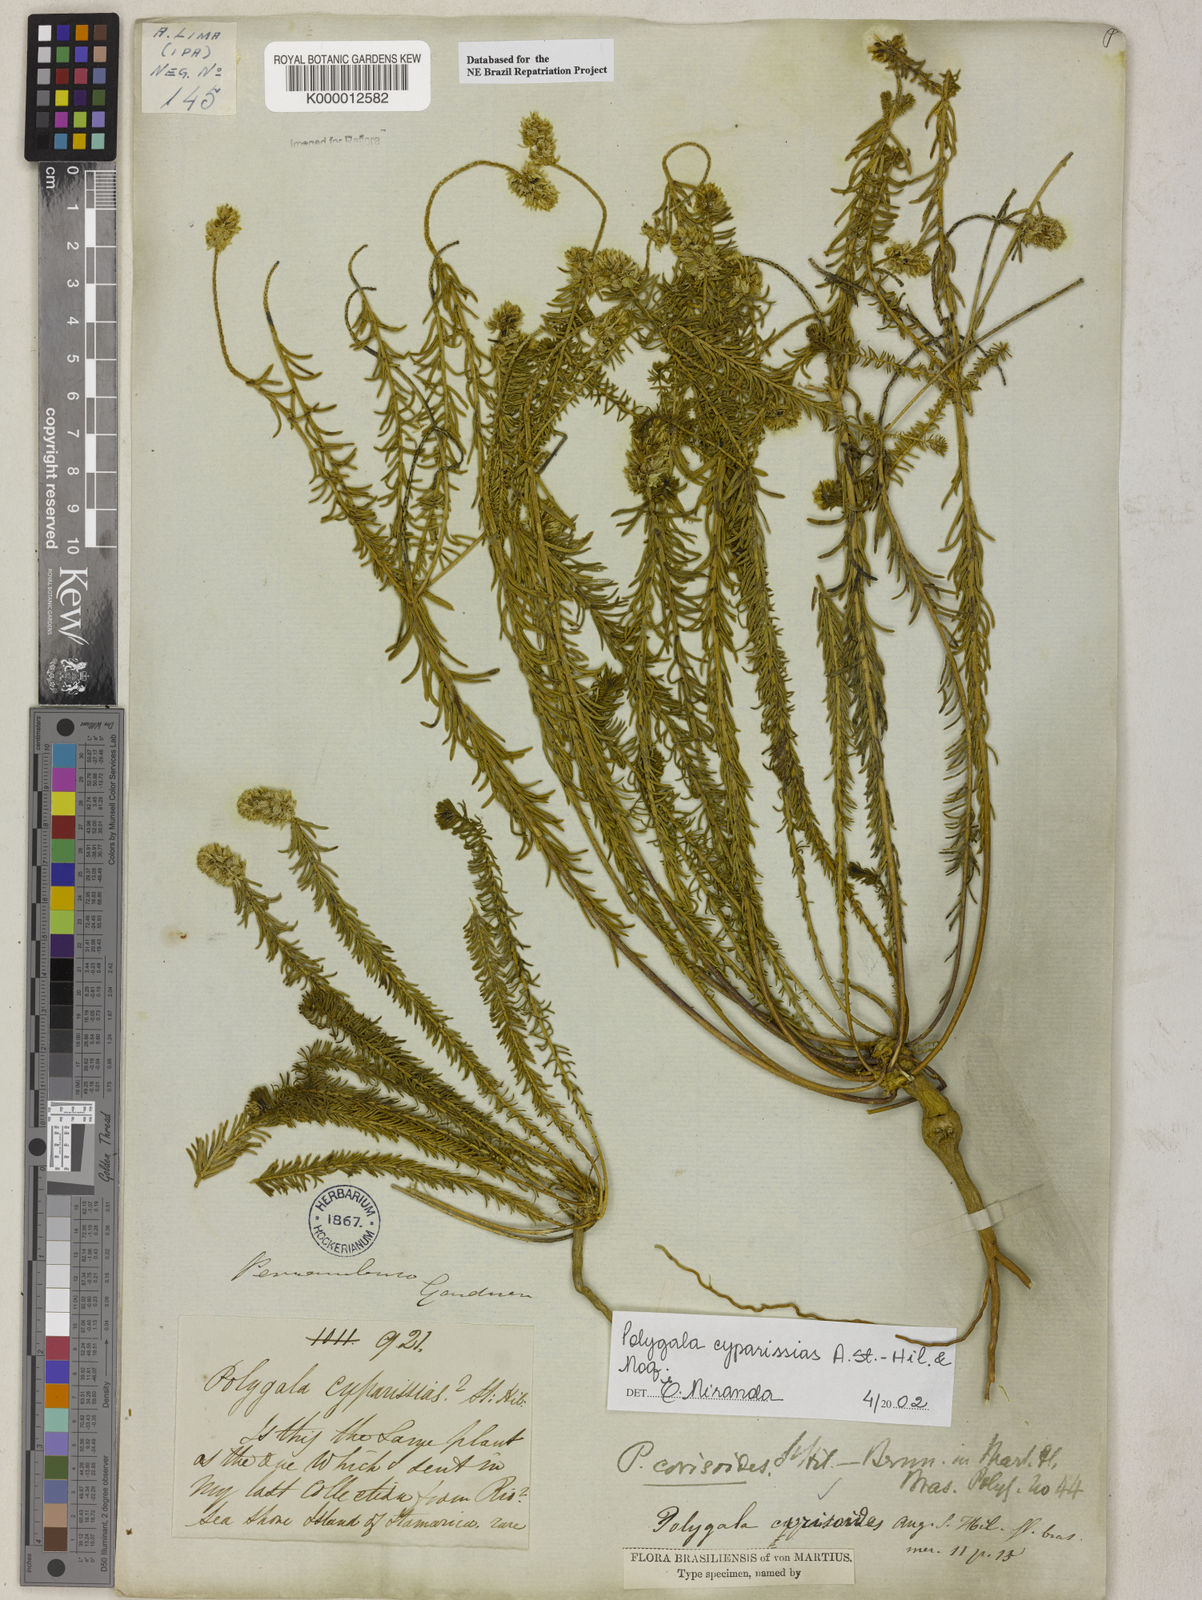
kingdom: Plantae
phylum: Tracheophyta
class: Magnoliopsida
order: Fabales
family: Polygalaceae
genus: Polygala
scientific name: Polygala cyparissias
